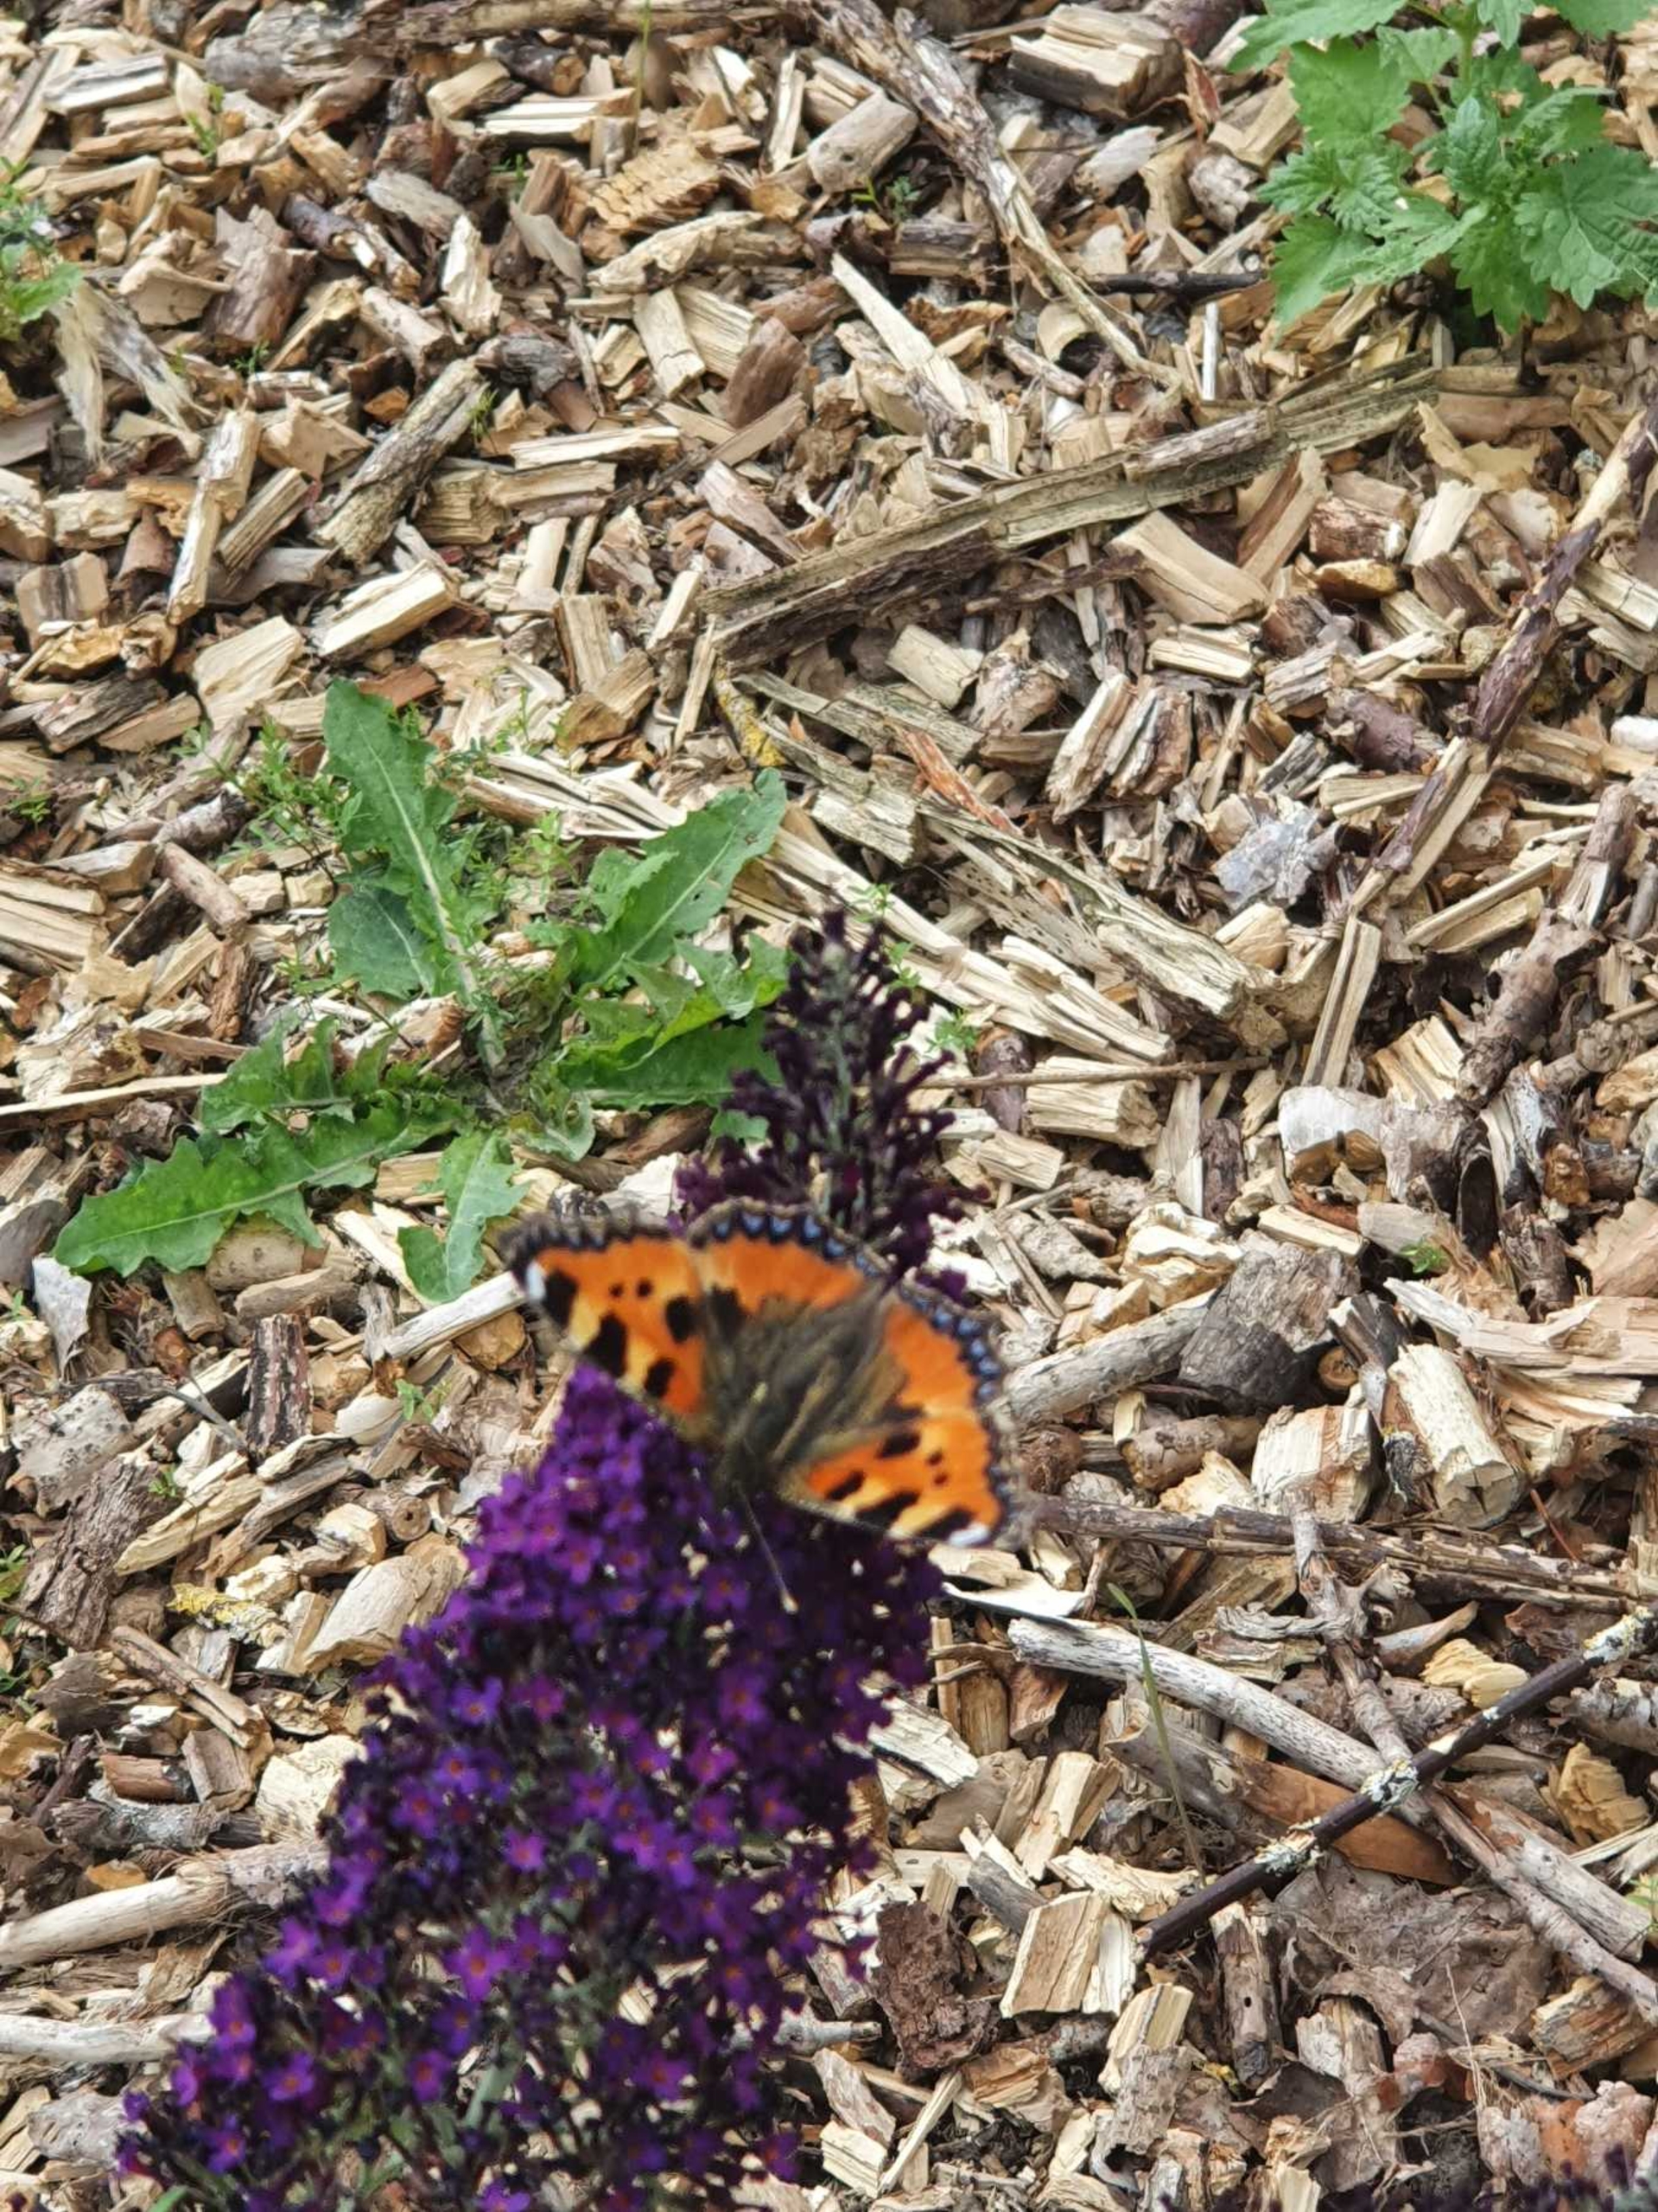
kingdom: Animalia
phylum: Arthropoda
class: Insecta
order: Lepidoptera
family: Nymphalidae
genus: Aglais
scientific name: Aglais urticae
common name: Nældens takvinge
